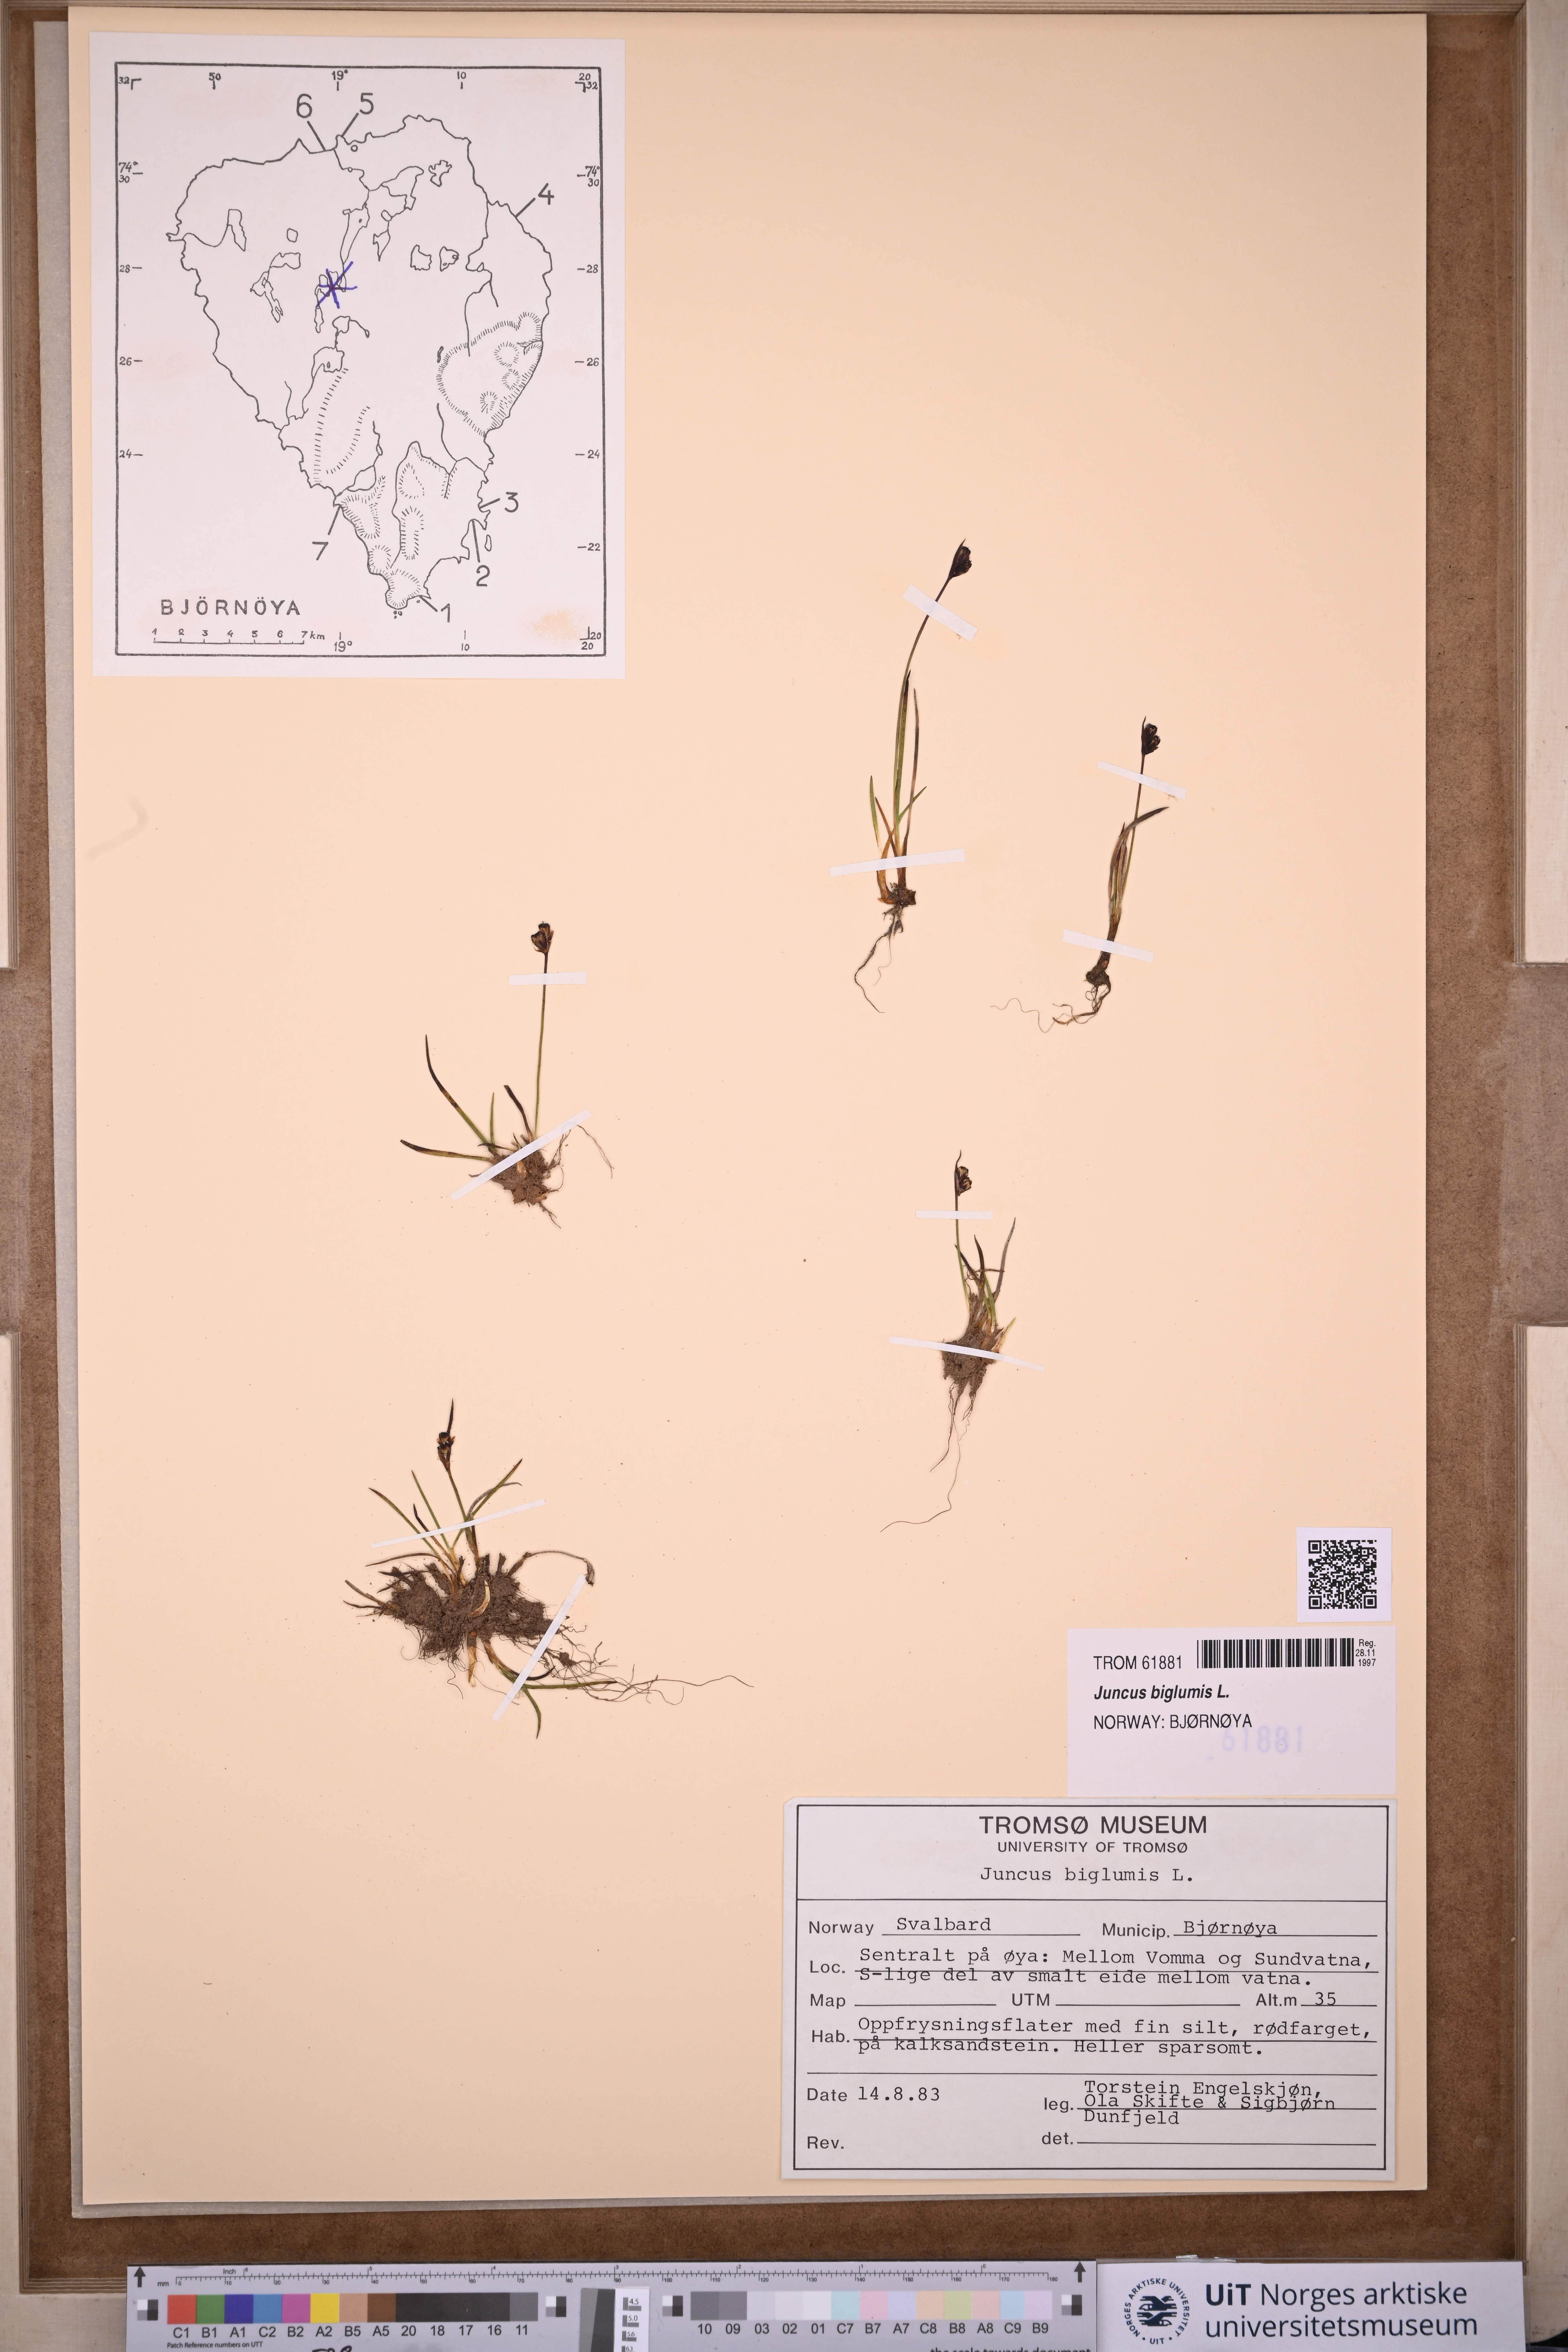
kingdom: Plantae
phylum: Tracheophyta
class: Liliopsida
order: Poales
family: Juncaceae
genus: Juncus
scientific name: Juncus biglumis
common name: Two-flowered rush
